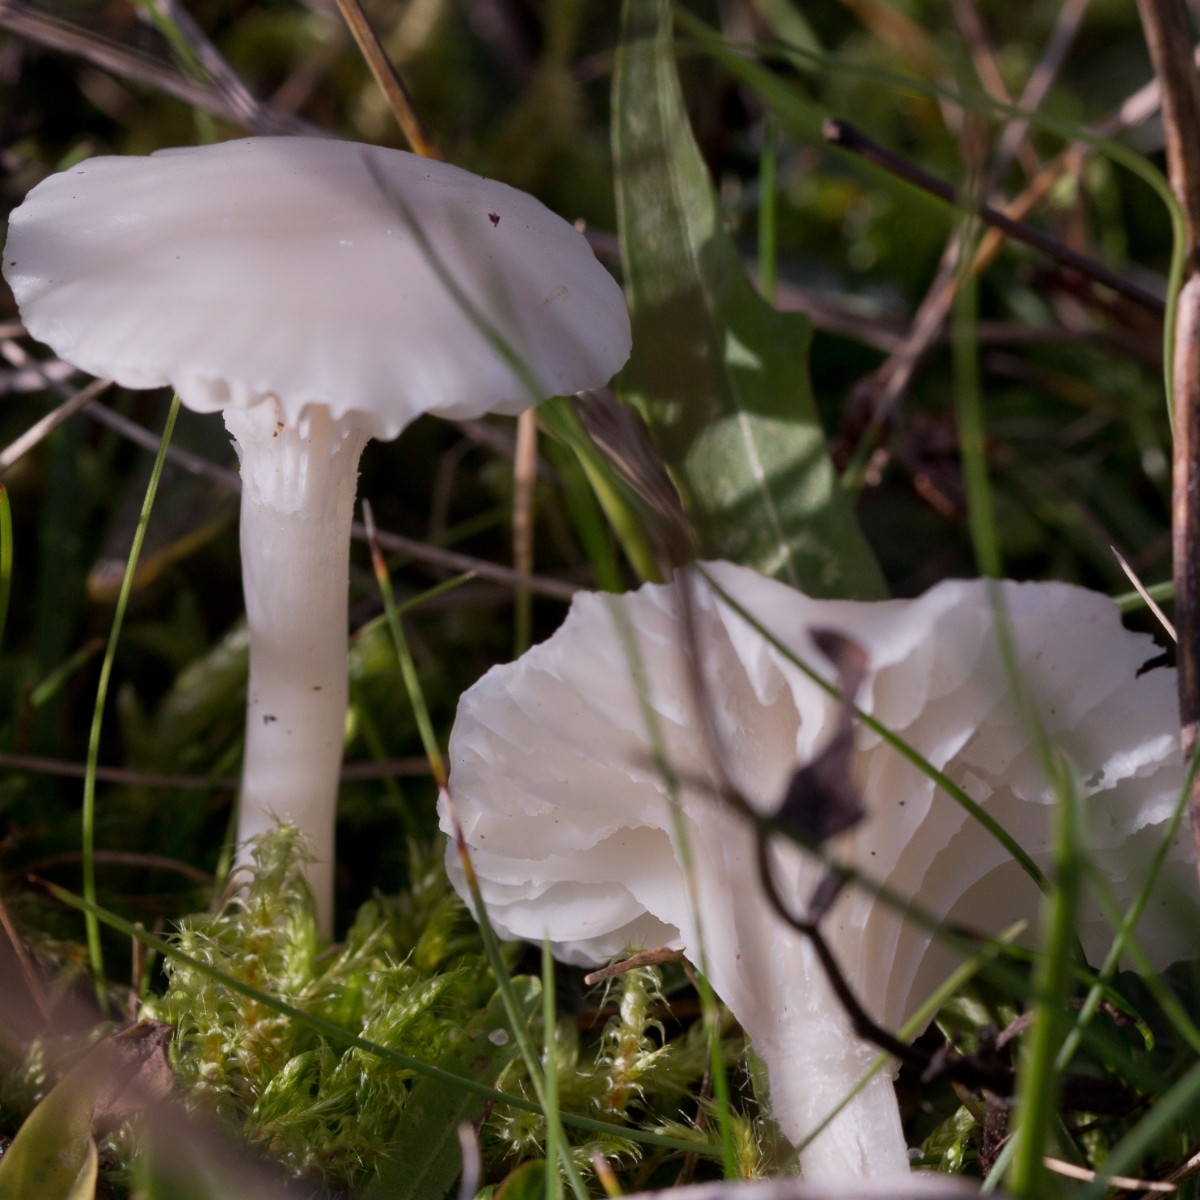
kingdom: Fungi
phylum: Basidiomycota
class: Agaricomycetes
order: Agaricales
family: Hygrophoraceae
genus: Cuphophyllus
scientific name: Cuphophyllus virgineus
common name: snehvid vokshat
